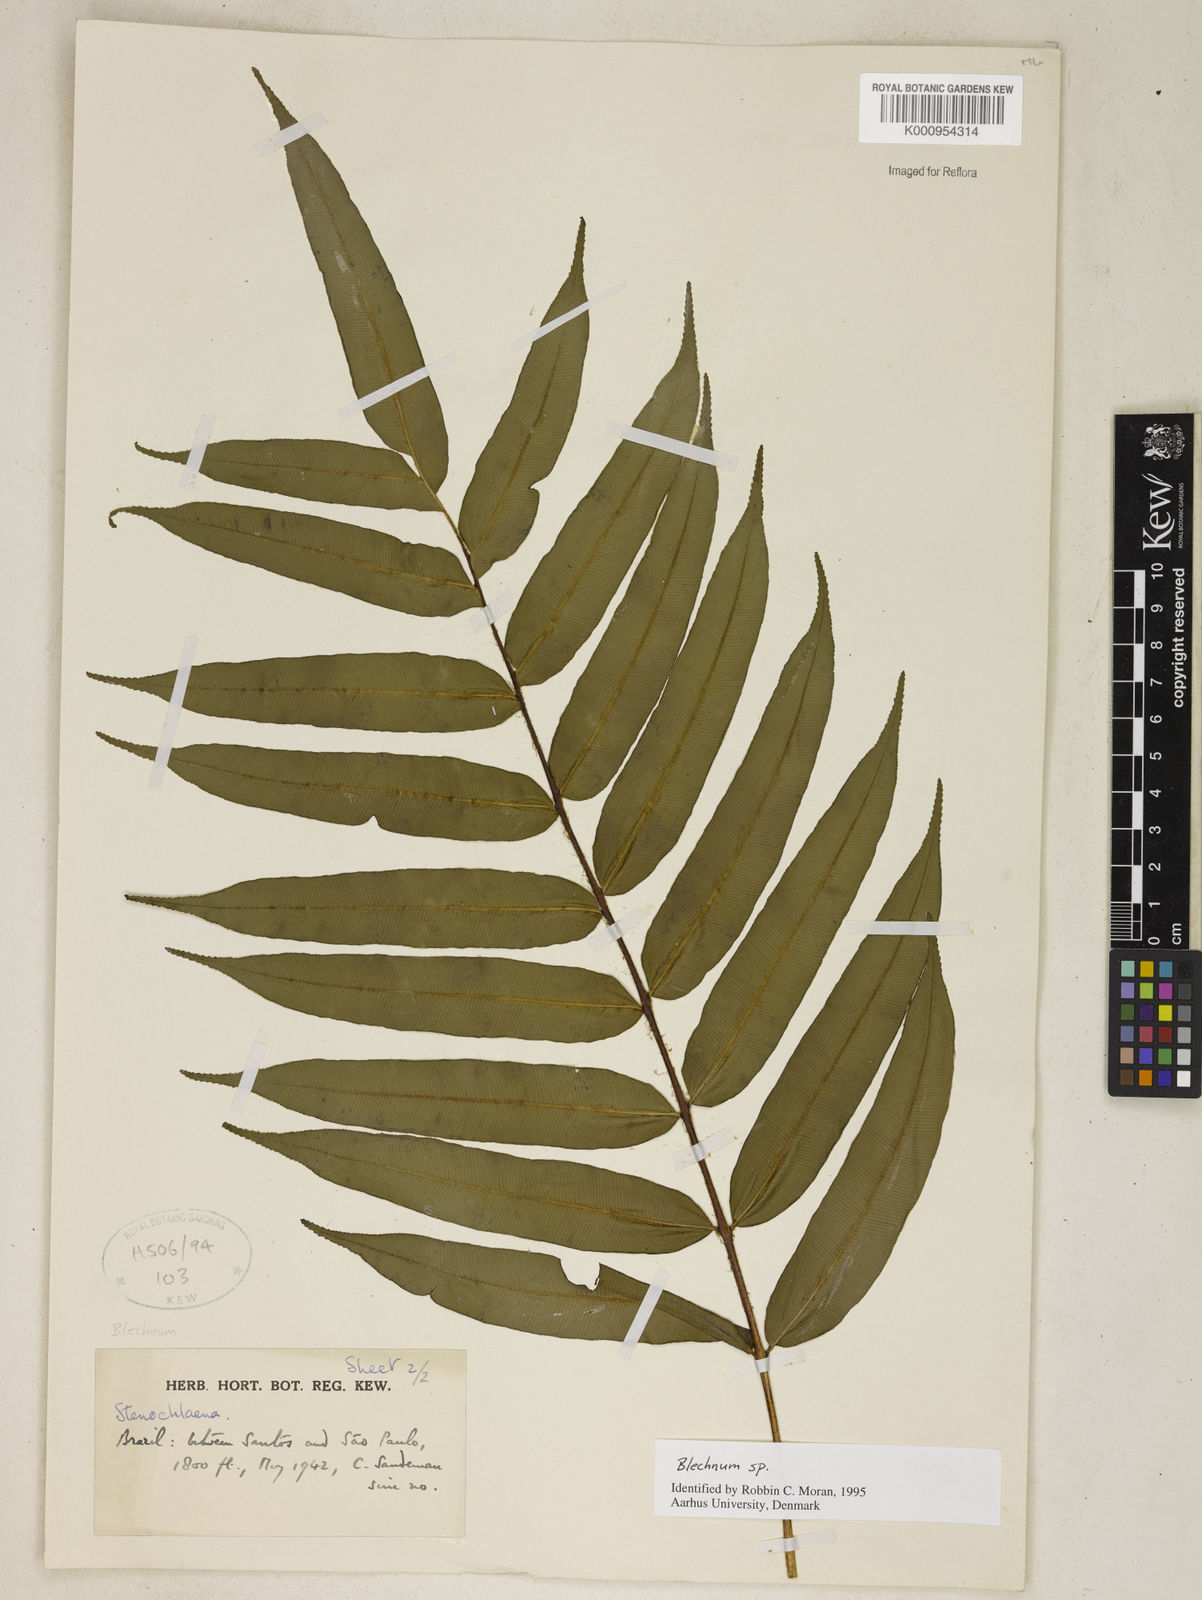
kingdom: Plantae
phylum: Tracheophyta
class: Polypodiopsida
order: Polypodiales
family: Blechnaceae
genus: Parablechnum
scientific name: Parablechnum cordatum
